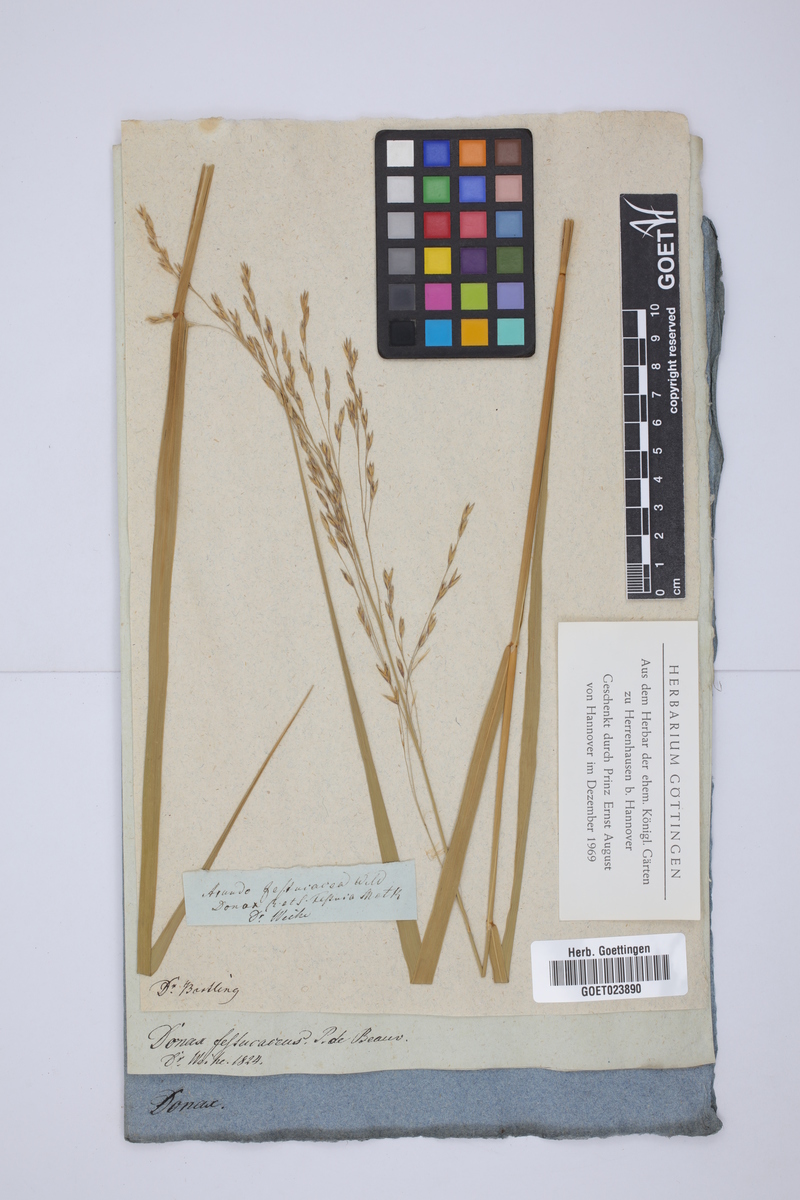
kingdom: Plantae
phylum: Tracheophyta
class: Liliopsida
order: Poales
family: Poaceae
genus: Scolochloa
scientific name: Scolochloa festucacea
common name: Common rivergrass
